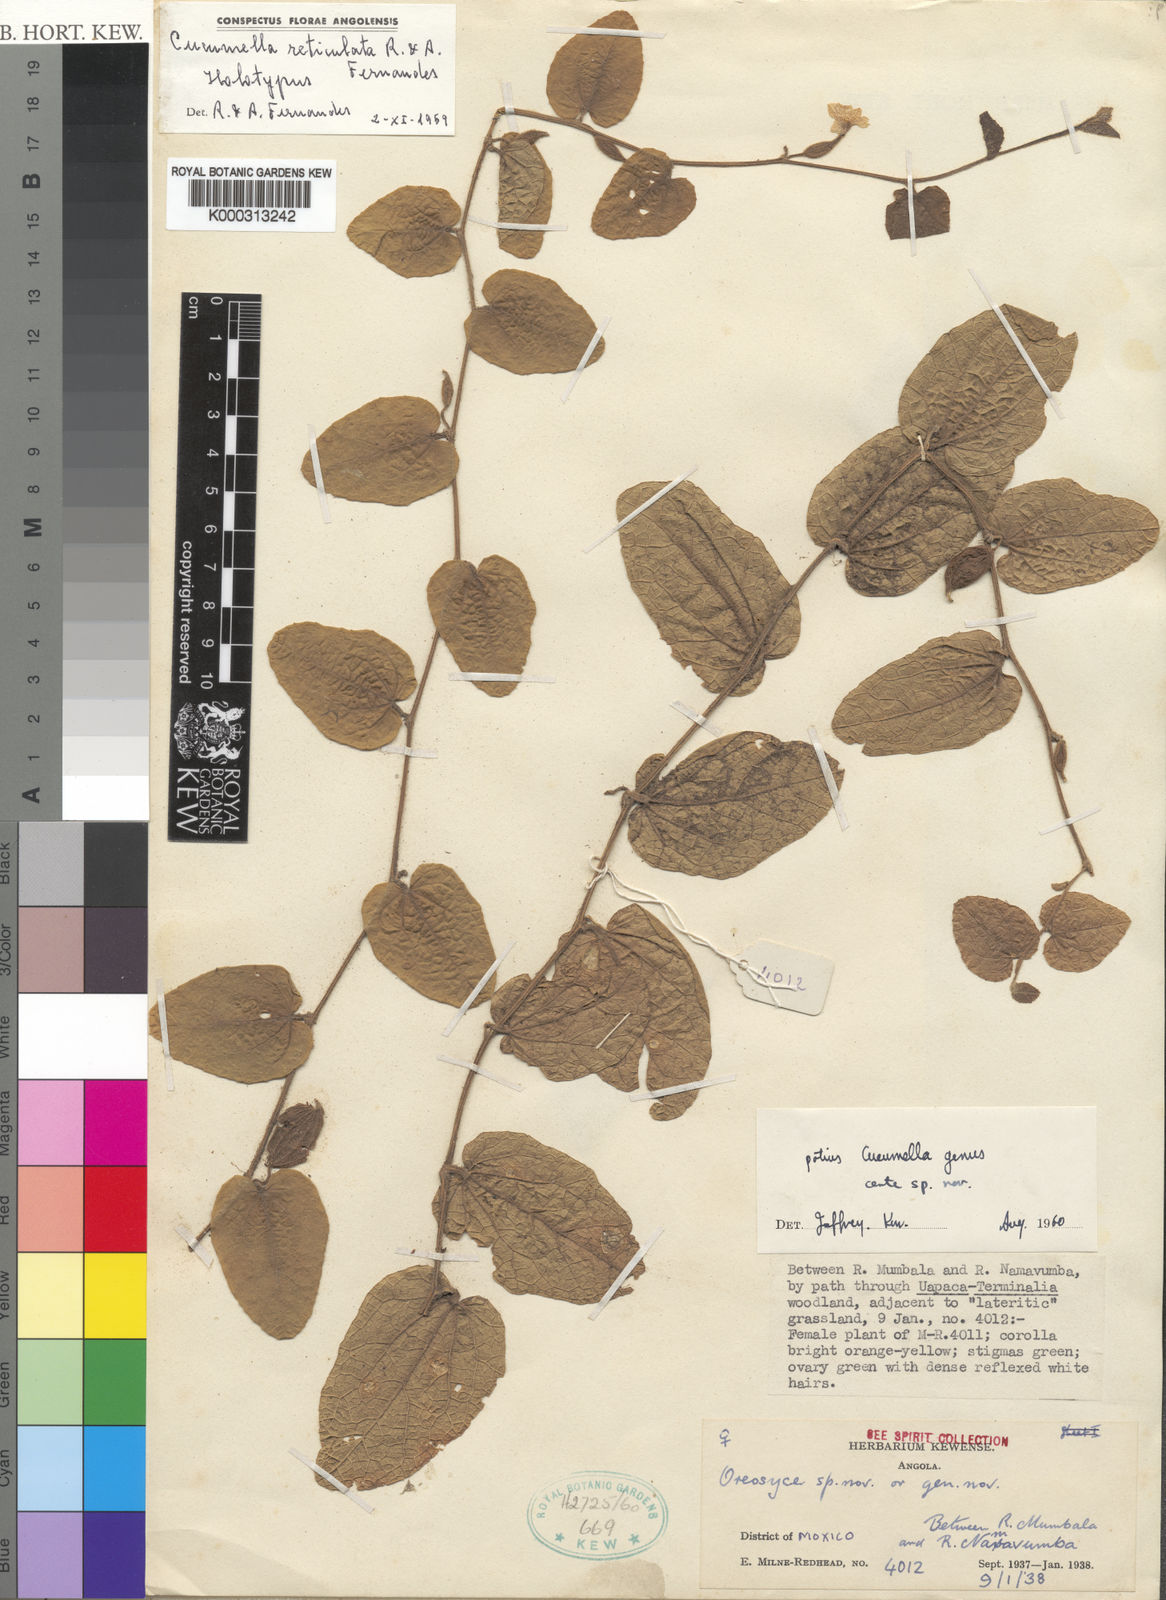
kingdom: Plantae
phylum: Tracheophyta
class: Magnoliopsida
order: Cucurbitales
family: Cucurbitaceae
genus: Cucumis
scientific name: Cucumis reticulatus
